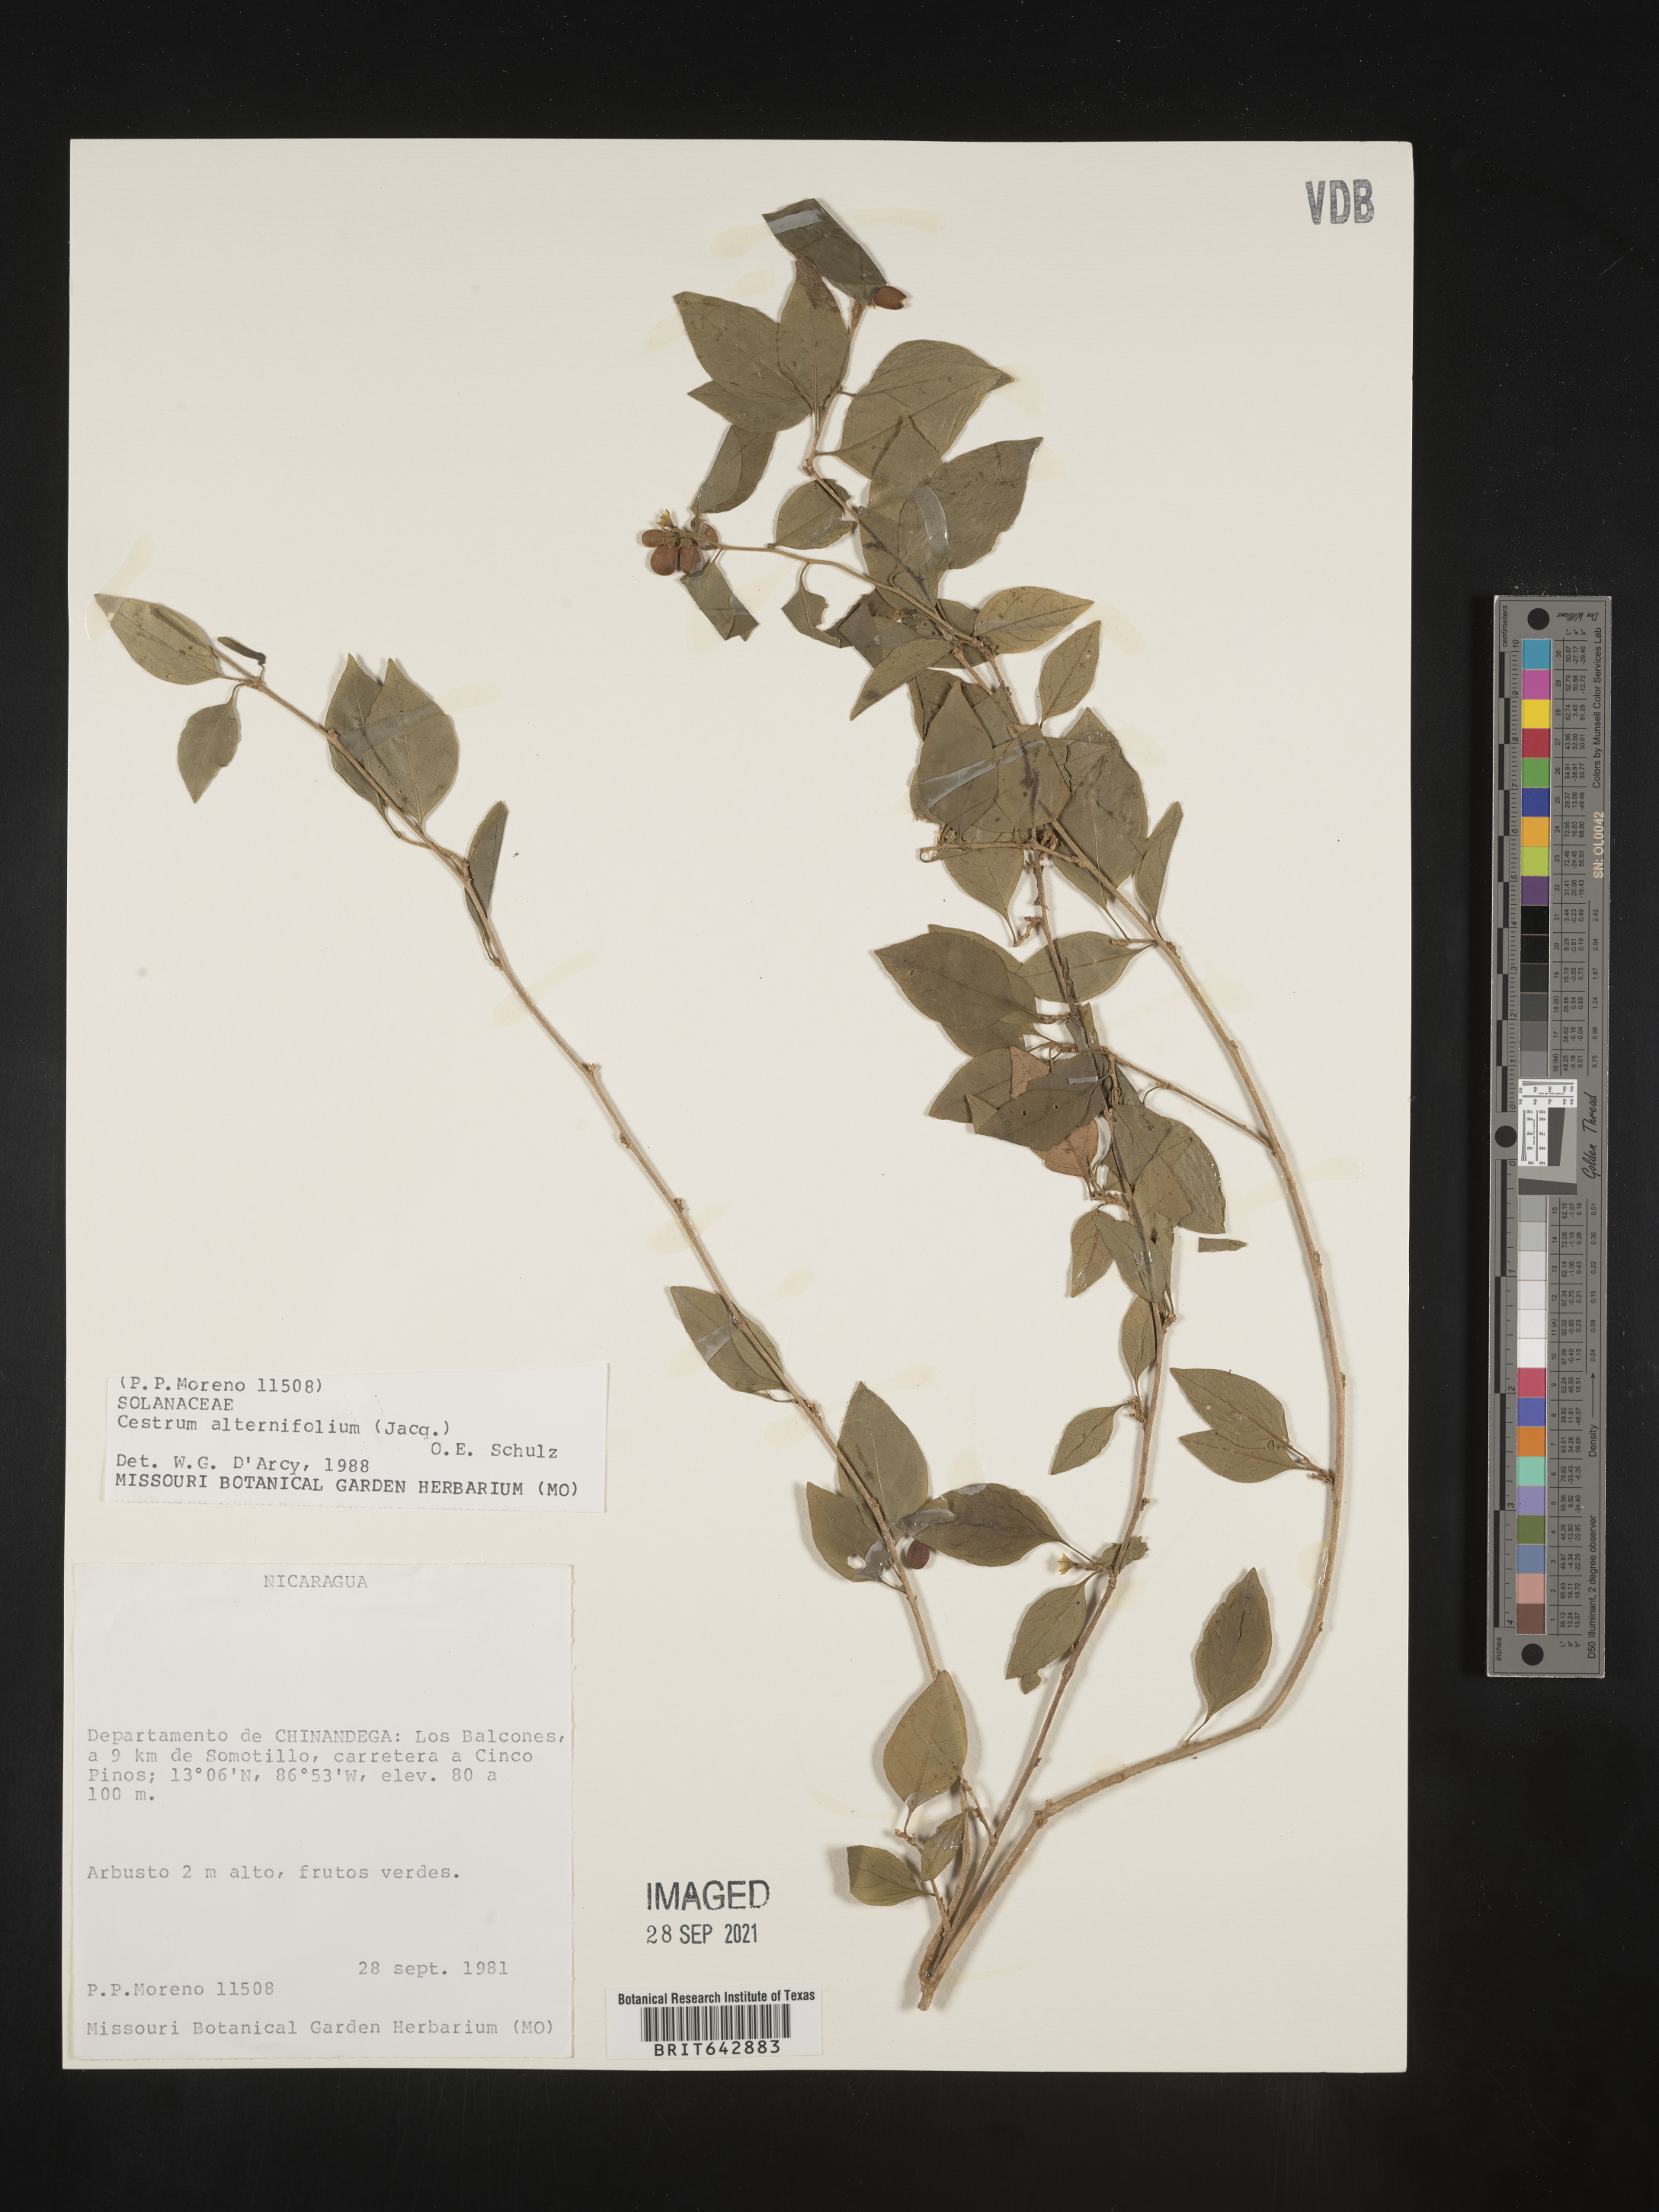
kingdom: Plantae
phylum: Tracheophyta
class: Magnoliopsida
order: Solanales
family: Solanaceae
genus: Cestrum
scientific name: Cestrum
